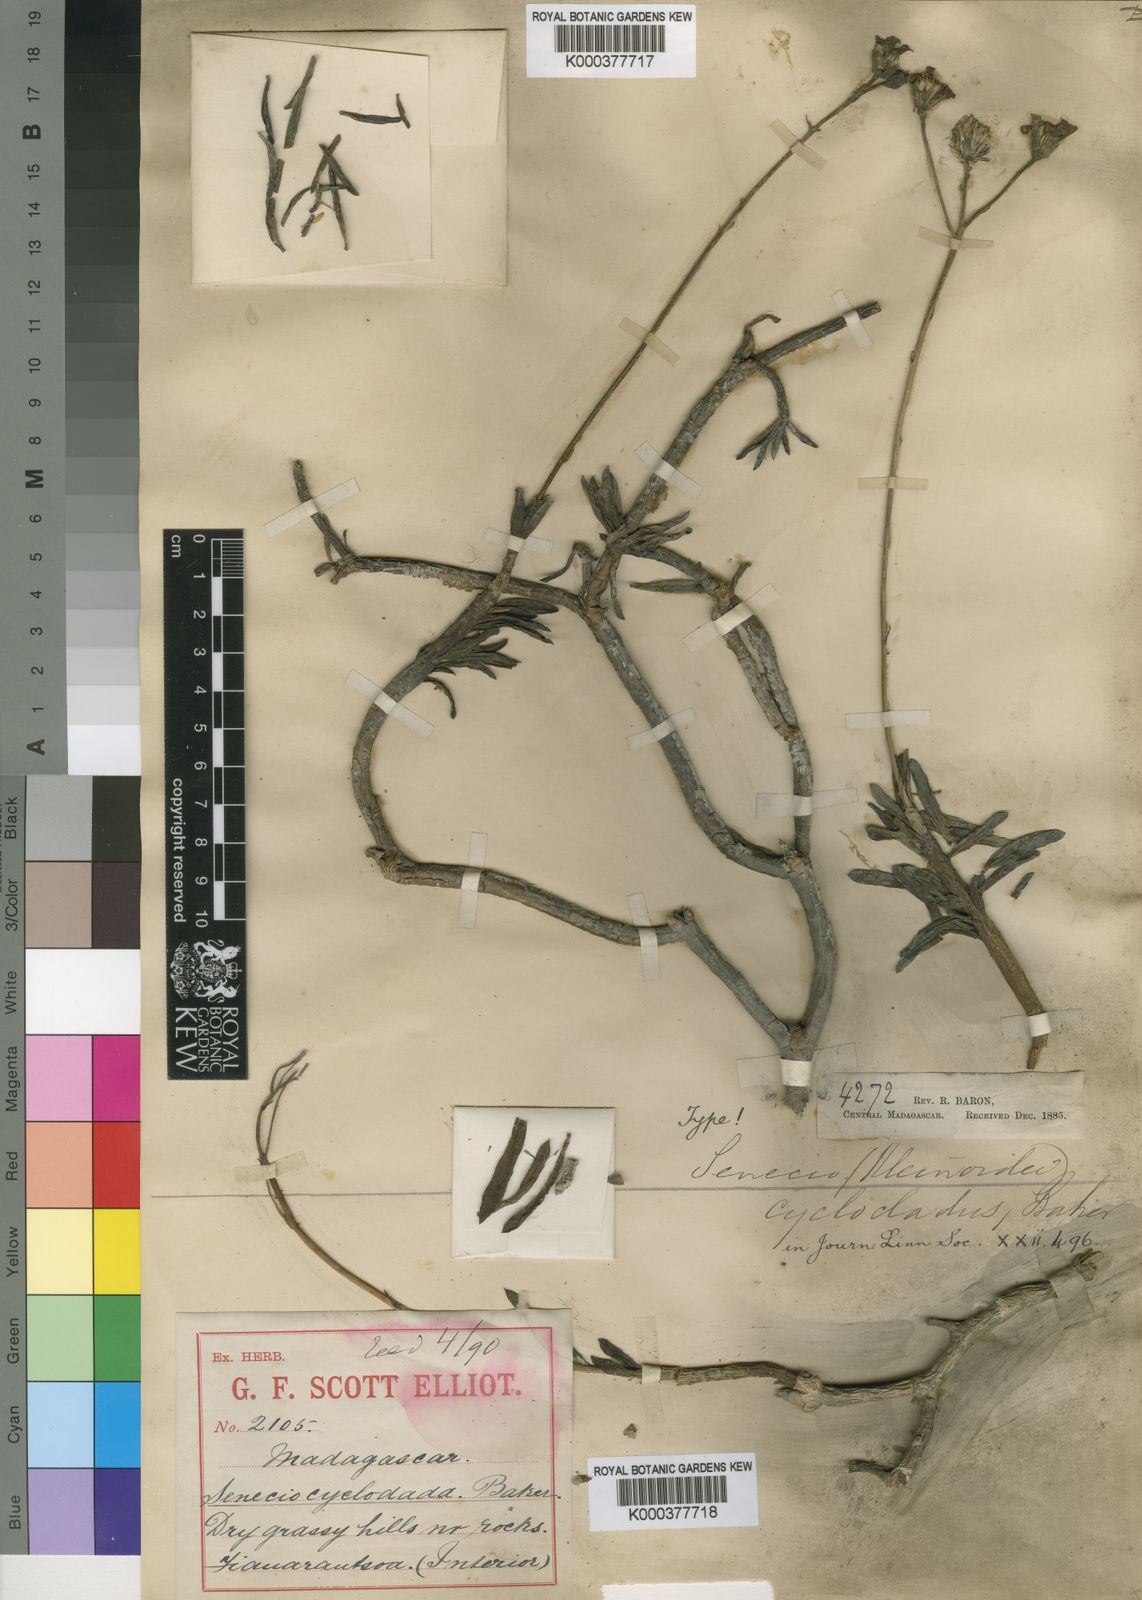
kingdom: Plantae
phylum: Tracheophyta
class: Magnoliopsida
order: Asterales
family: Asteraceae
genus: Kleinia
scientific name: Kleinia
